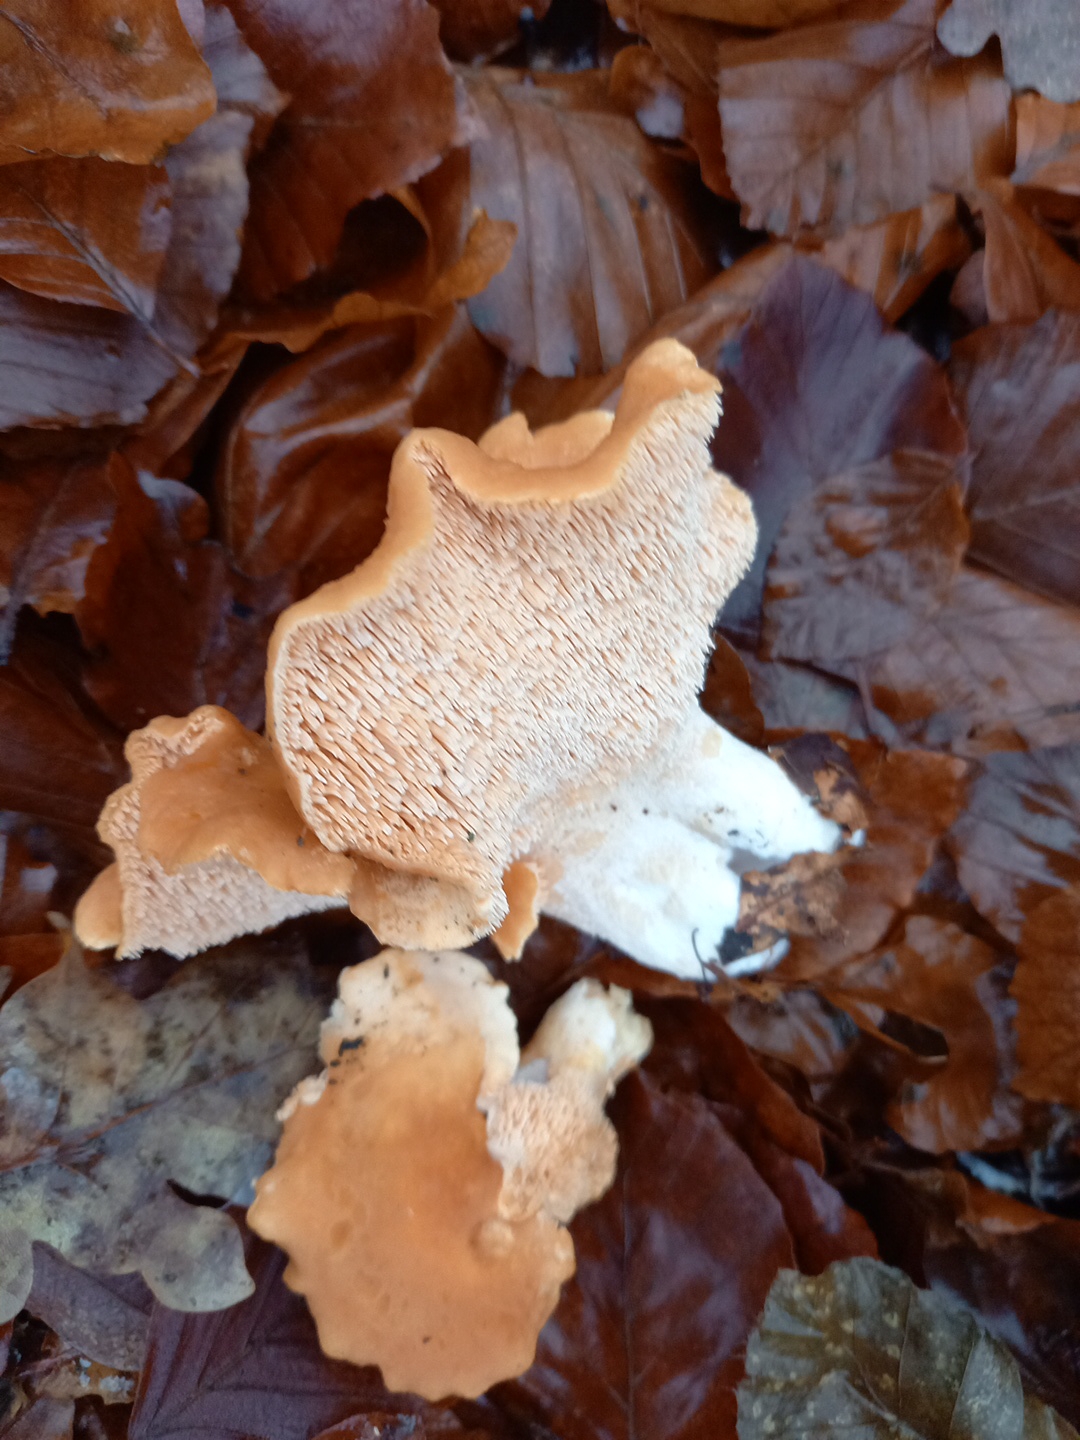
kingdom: Fungi
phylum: Basidiomycota
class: Agaricomycetes
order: Cantharellales
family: Hydnaceae
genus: Hydnum
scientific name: Hydnum
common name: pigsvamp
